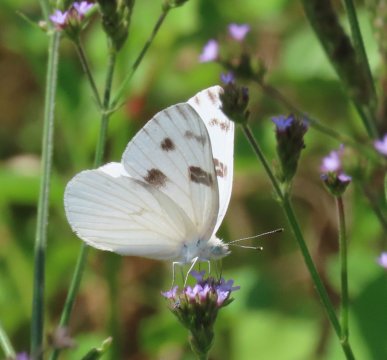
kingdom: Animalia
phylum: Arthropoda
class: Insecta
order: Lepidoptera
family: Pieridae
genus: Pontia
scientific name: Pontia protodice
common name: Checkered White
